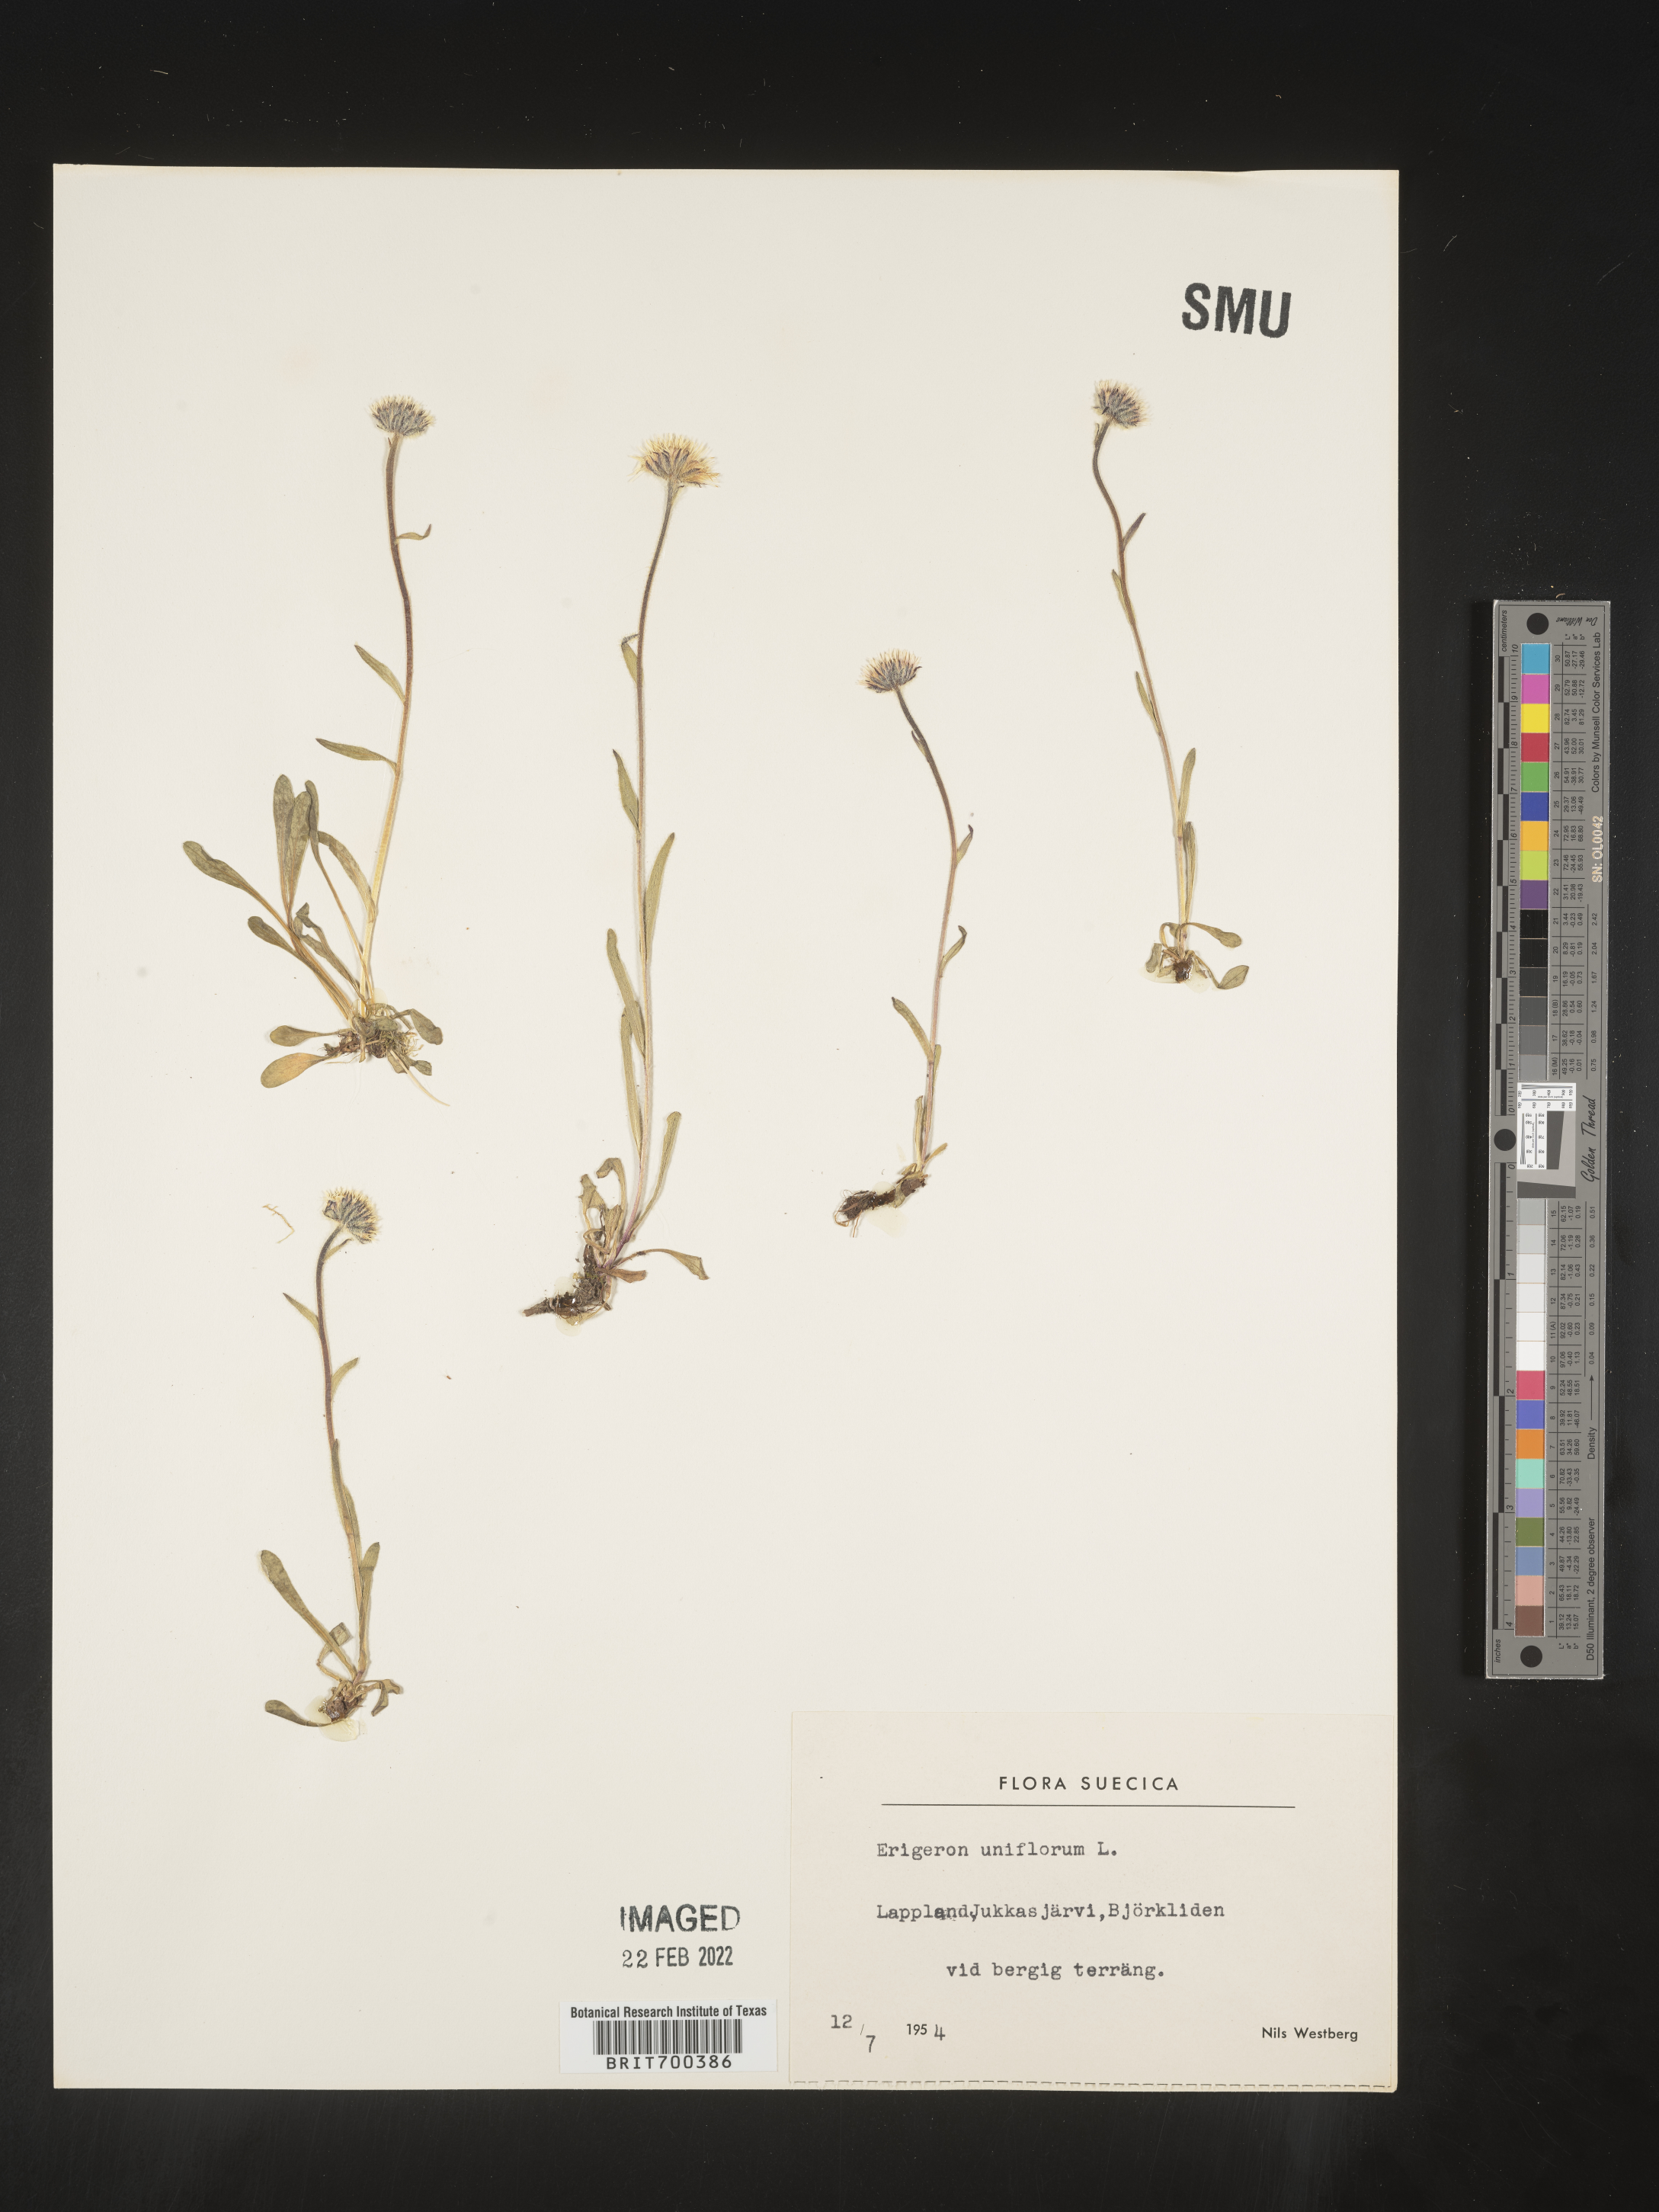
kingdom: Plantae
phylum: Tracheophyta
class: Magnoliopsida
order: Asterales
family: Asteraceae
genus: Erigeron
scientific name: Erigeron
